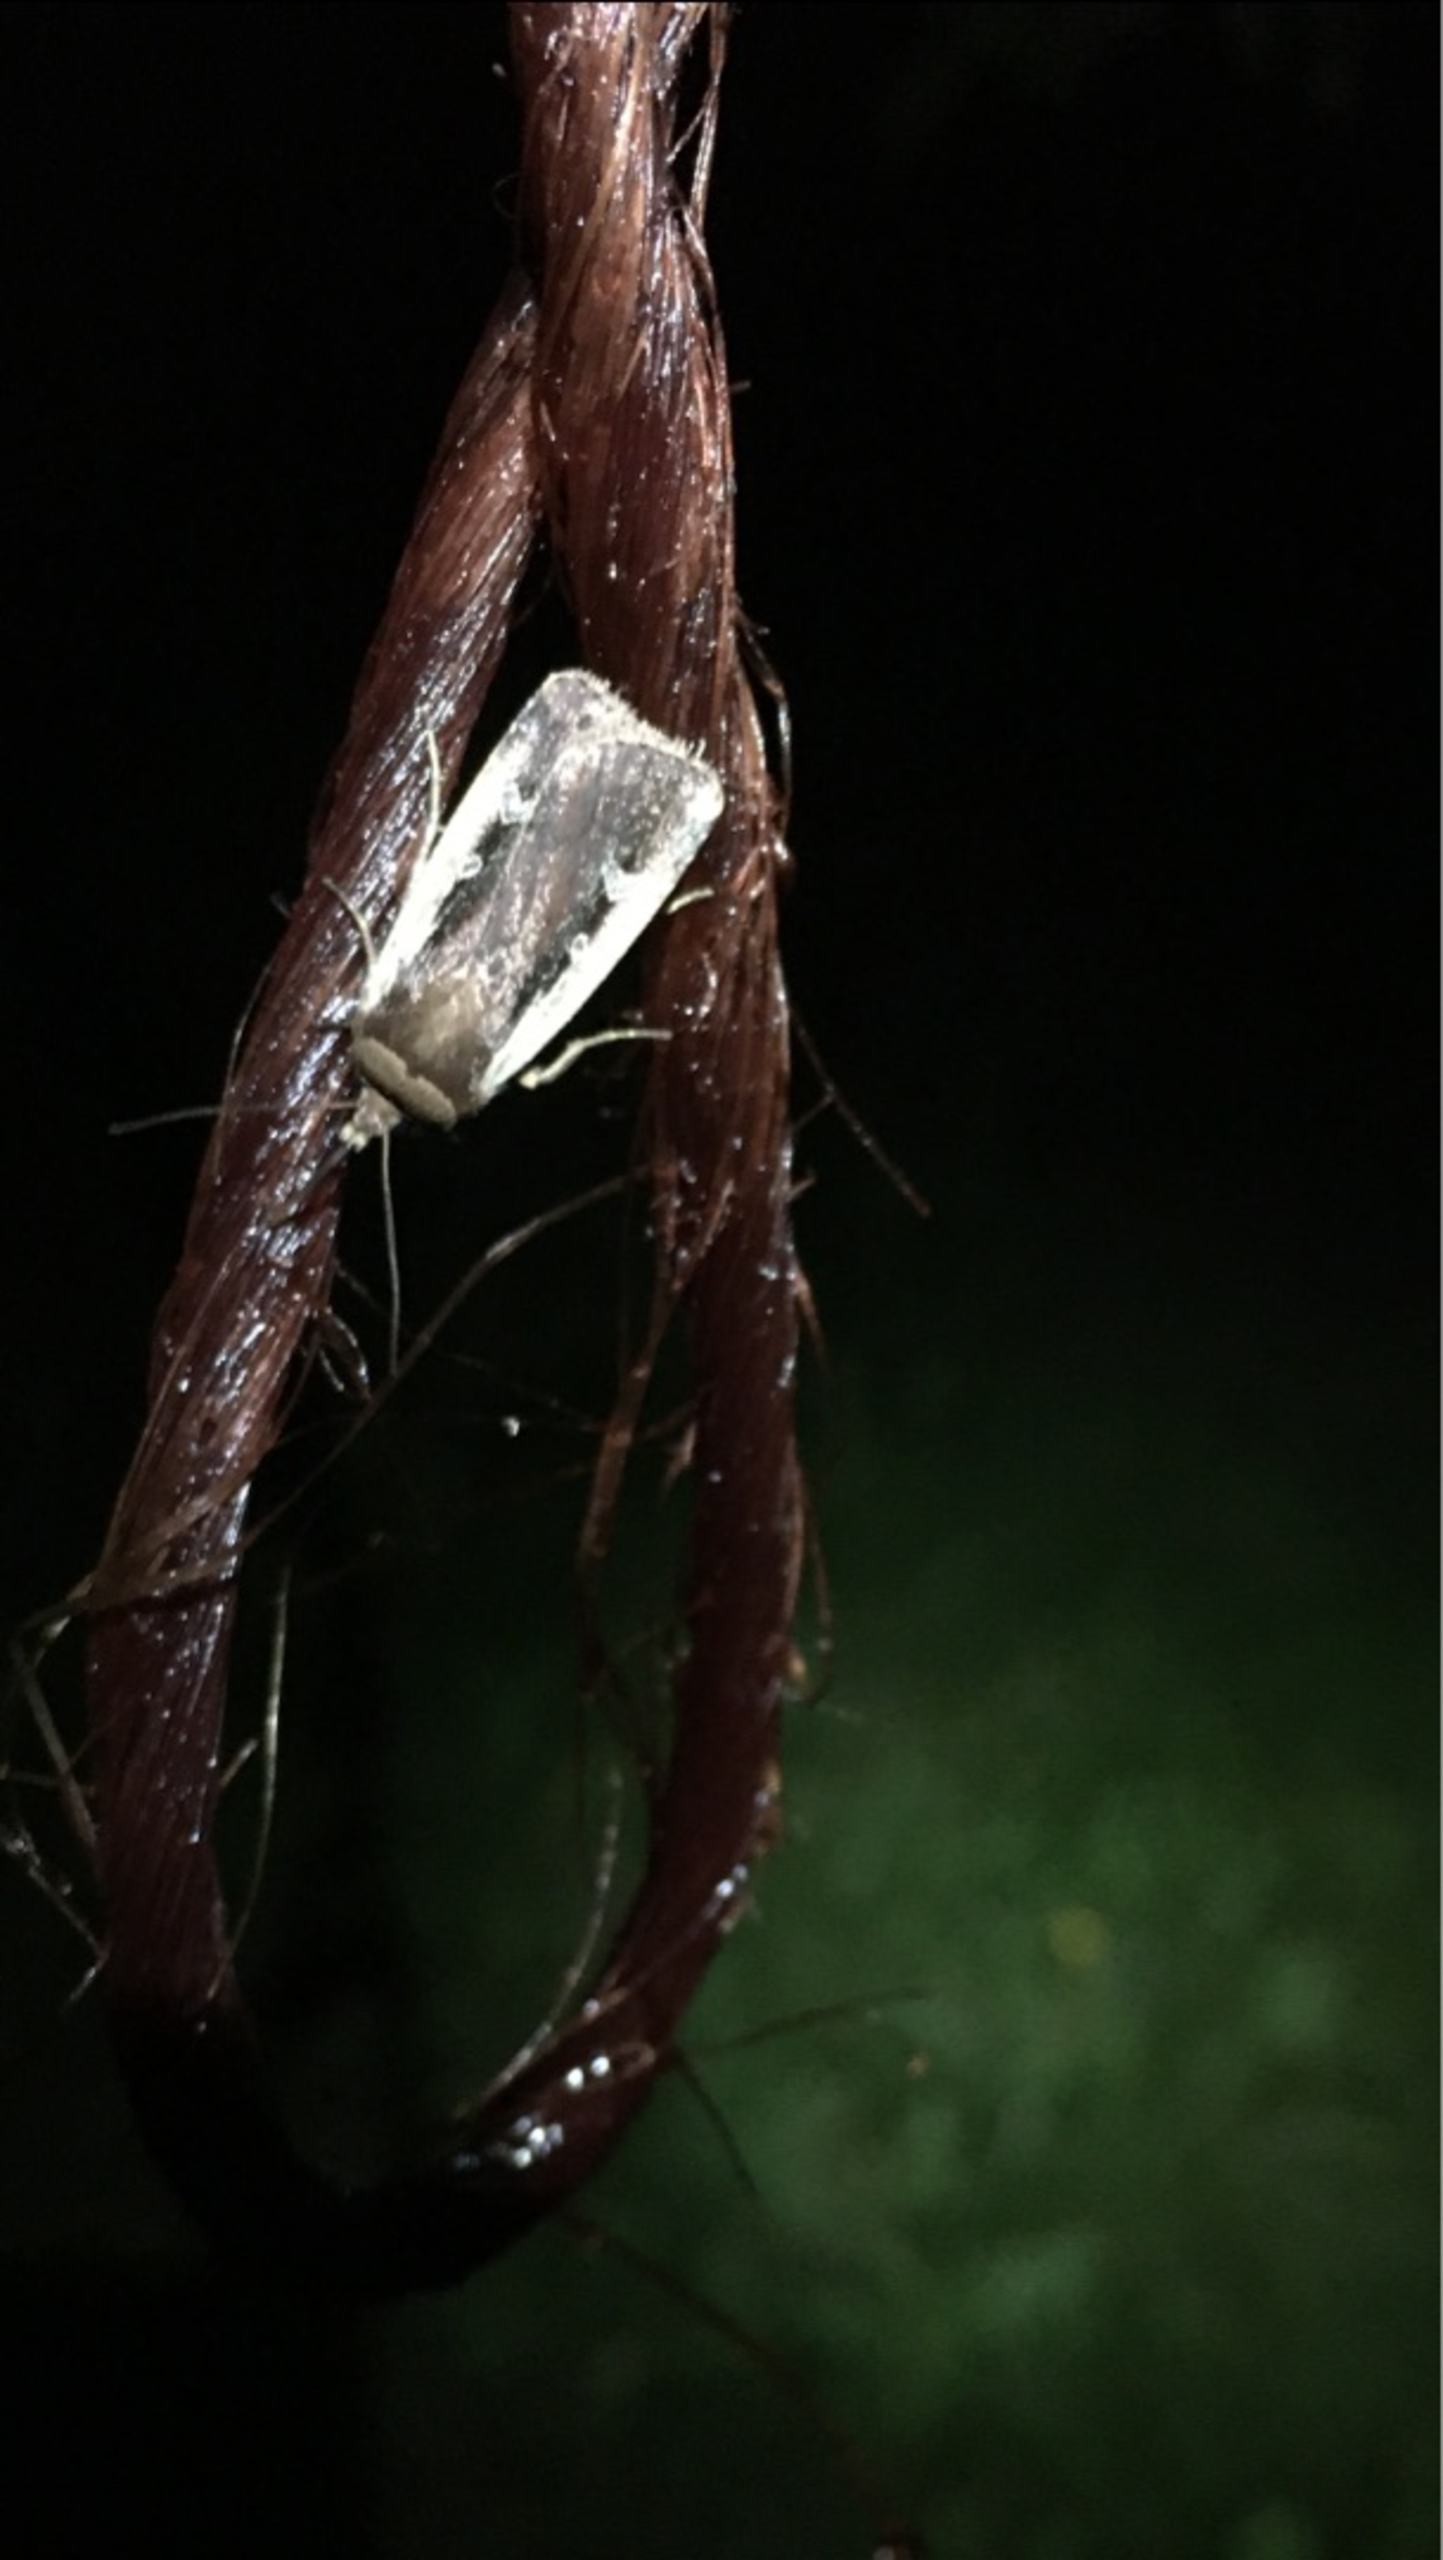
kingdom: Animalia
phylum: Arthropoda
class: Insecta
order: Lepidoptera
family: Noctuidae
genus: Ochropleura
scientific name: Ochropleura plecta
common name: Hvidrandet jordugle
